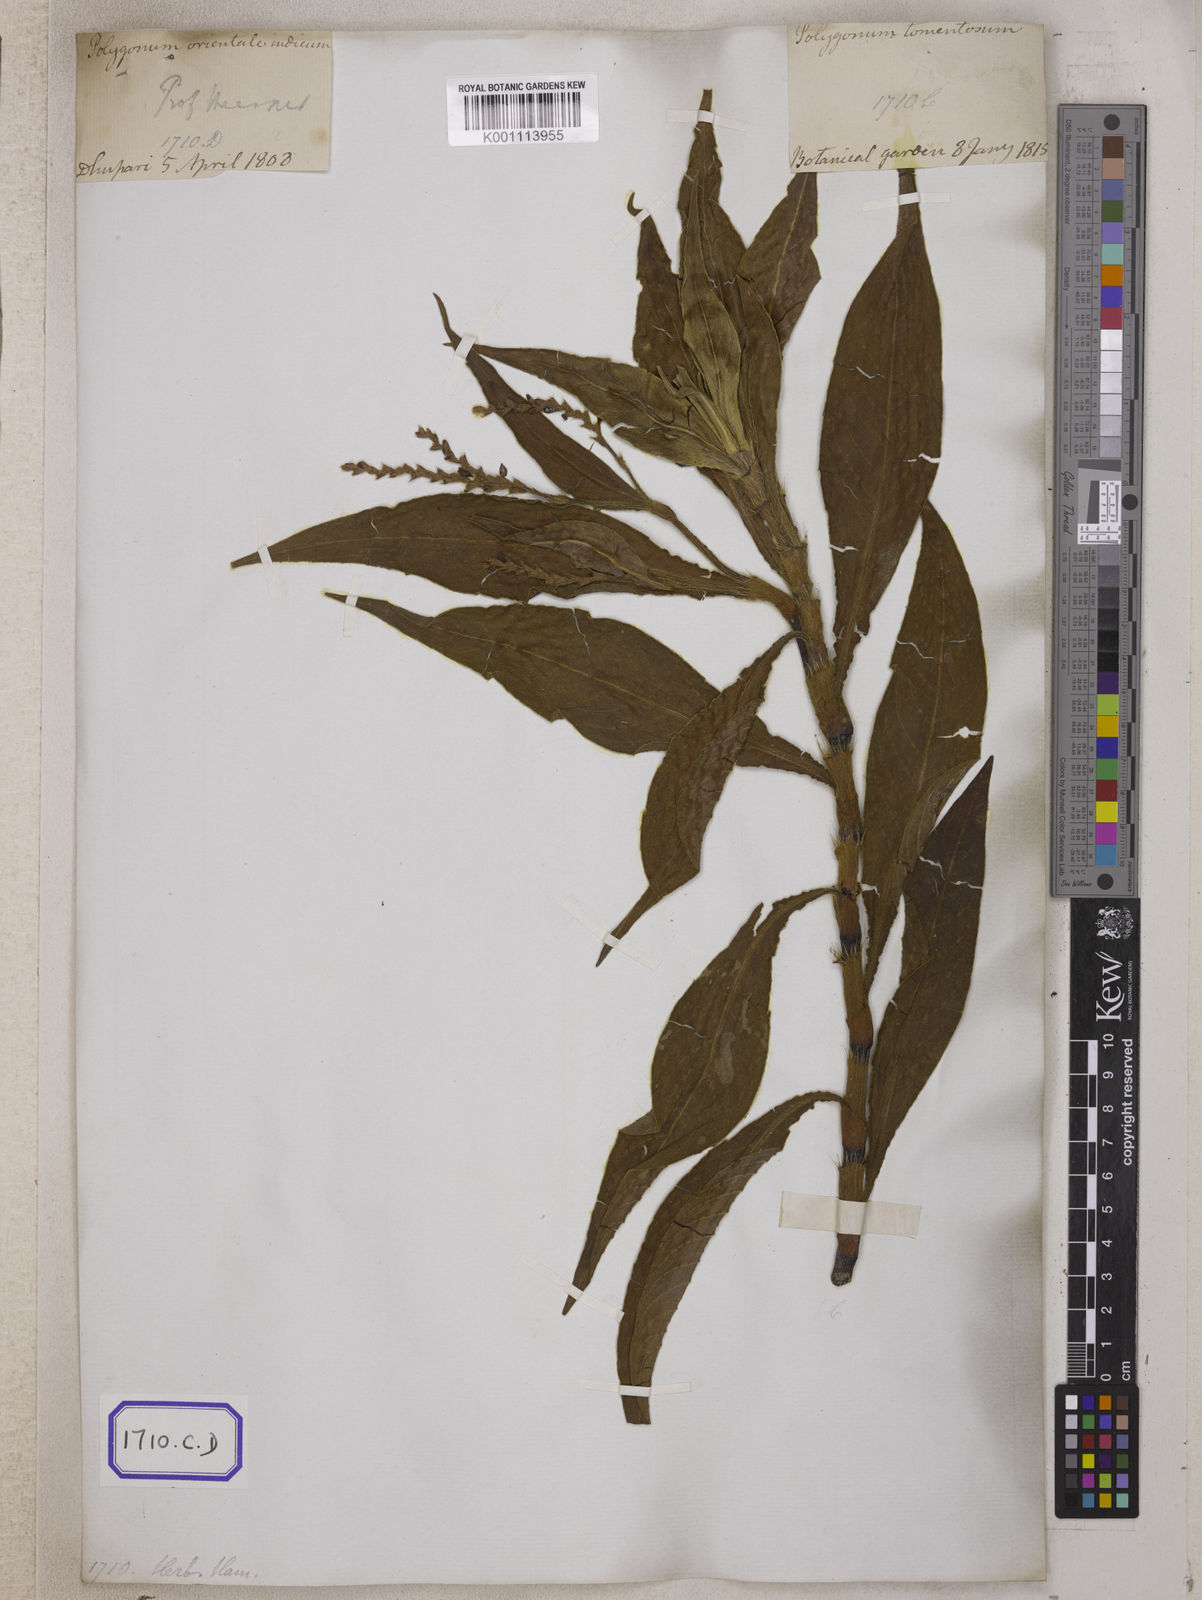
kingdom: Plantae
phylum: Tracheophyta
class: Magnoliopsida
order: Caryophyllales
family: Polygonaceae
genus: Polygonum
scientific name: Polygonum
